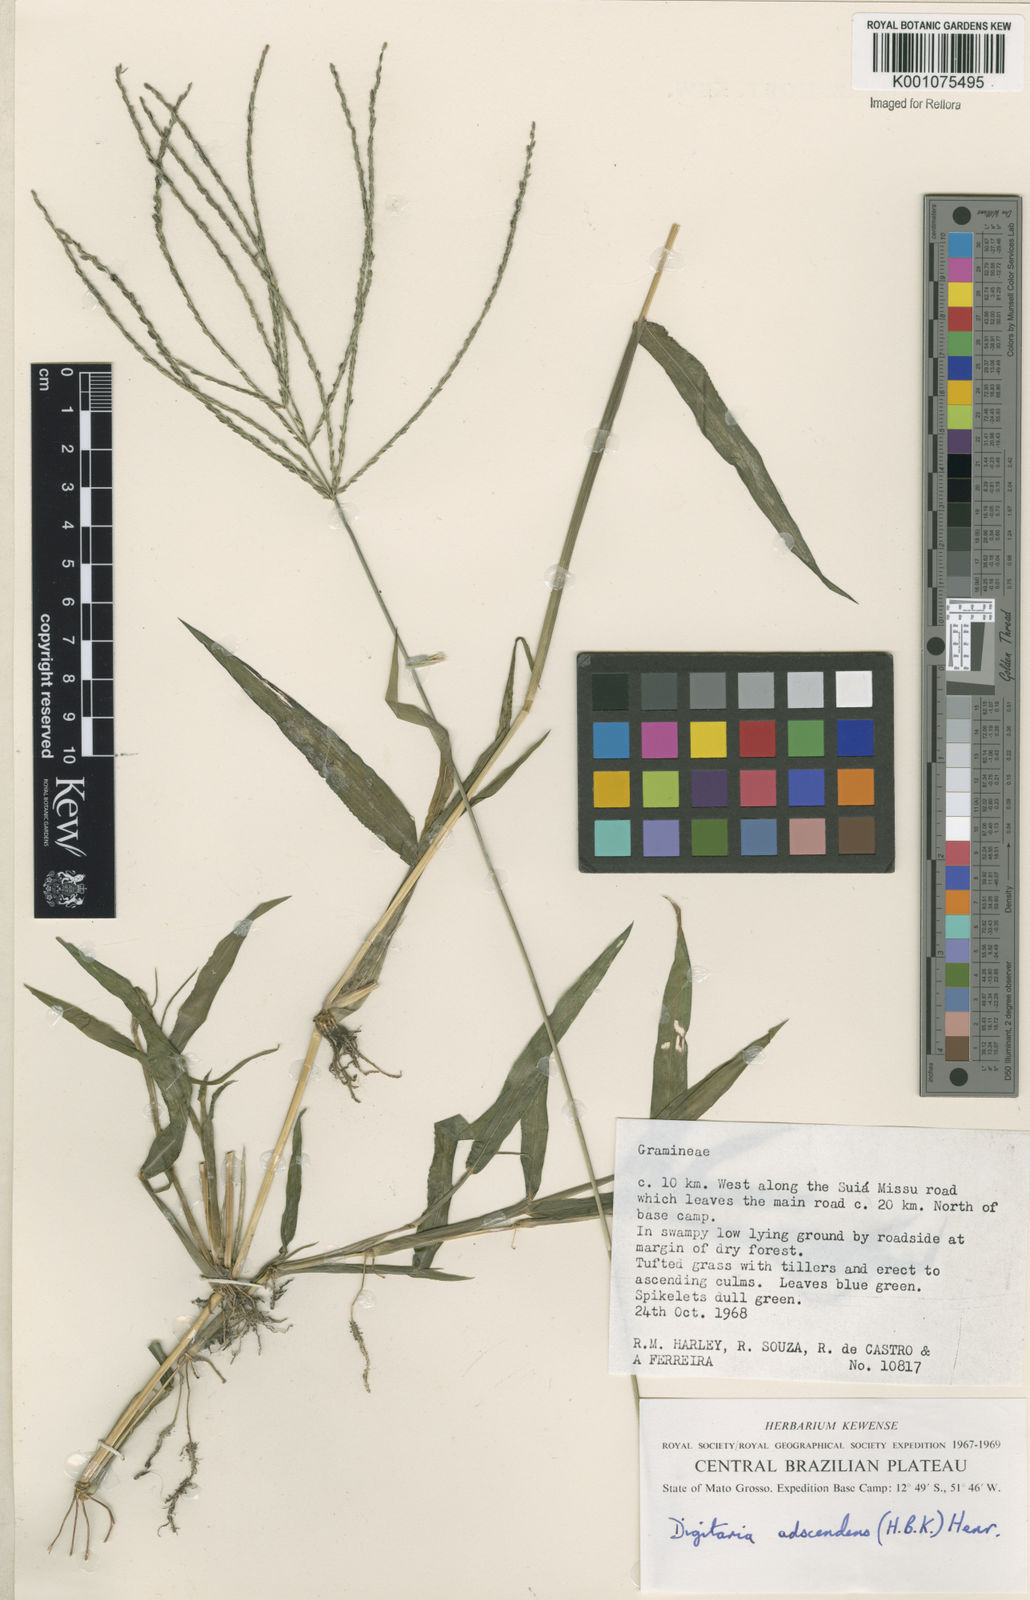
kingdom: Plantae
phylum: Tracheophyta
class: Liliopsida
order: Poales
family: Poaceae
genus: Digitaria
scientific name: Digitaria nuda
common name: Naked crabgrass
